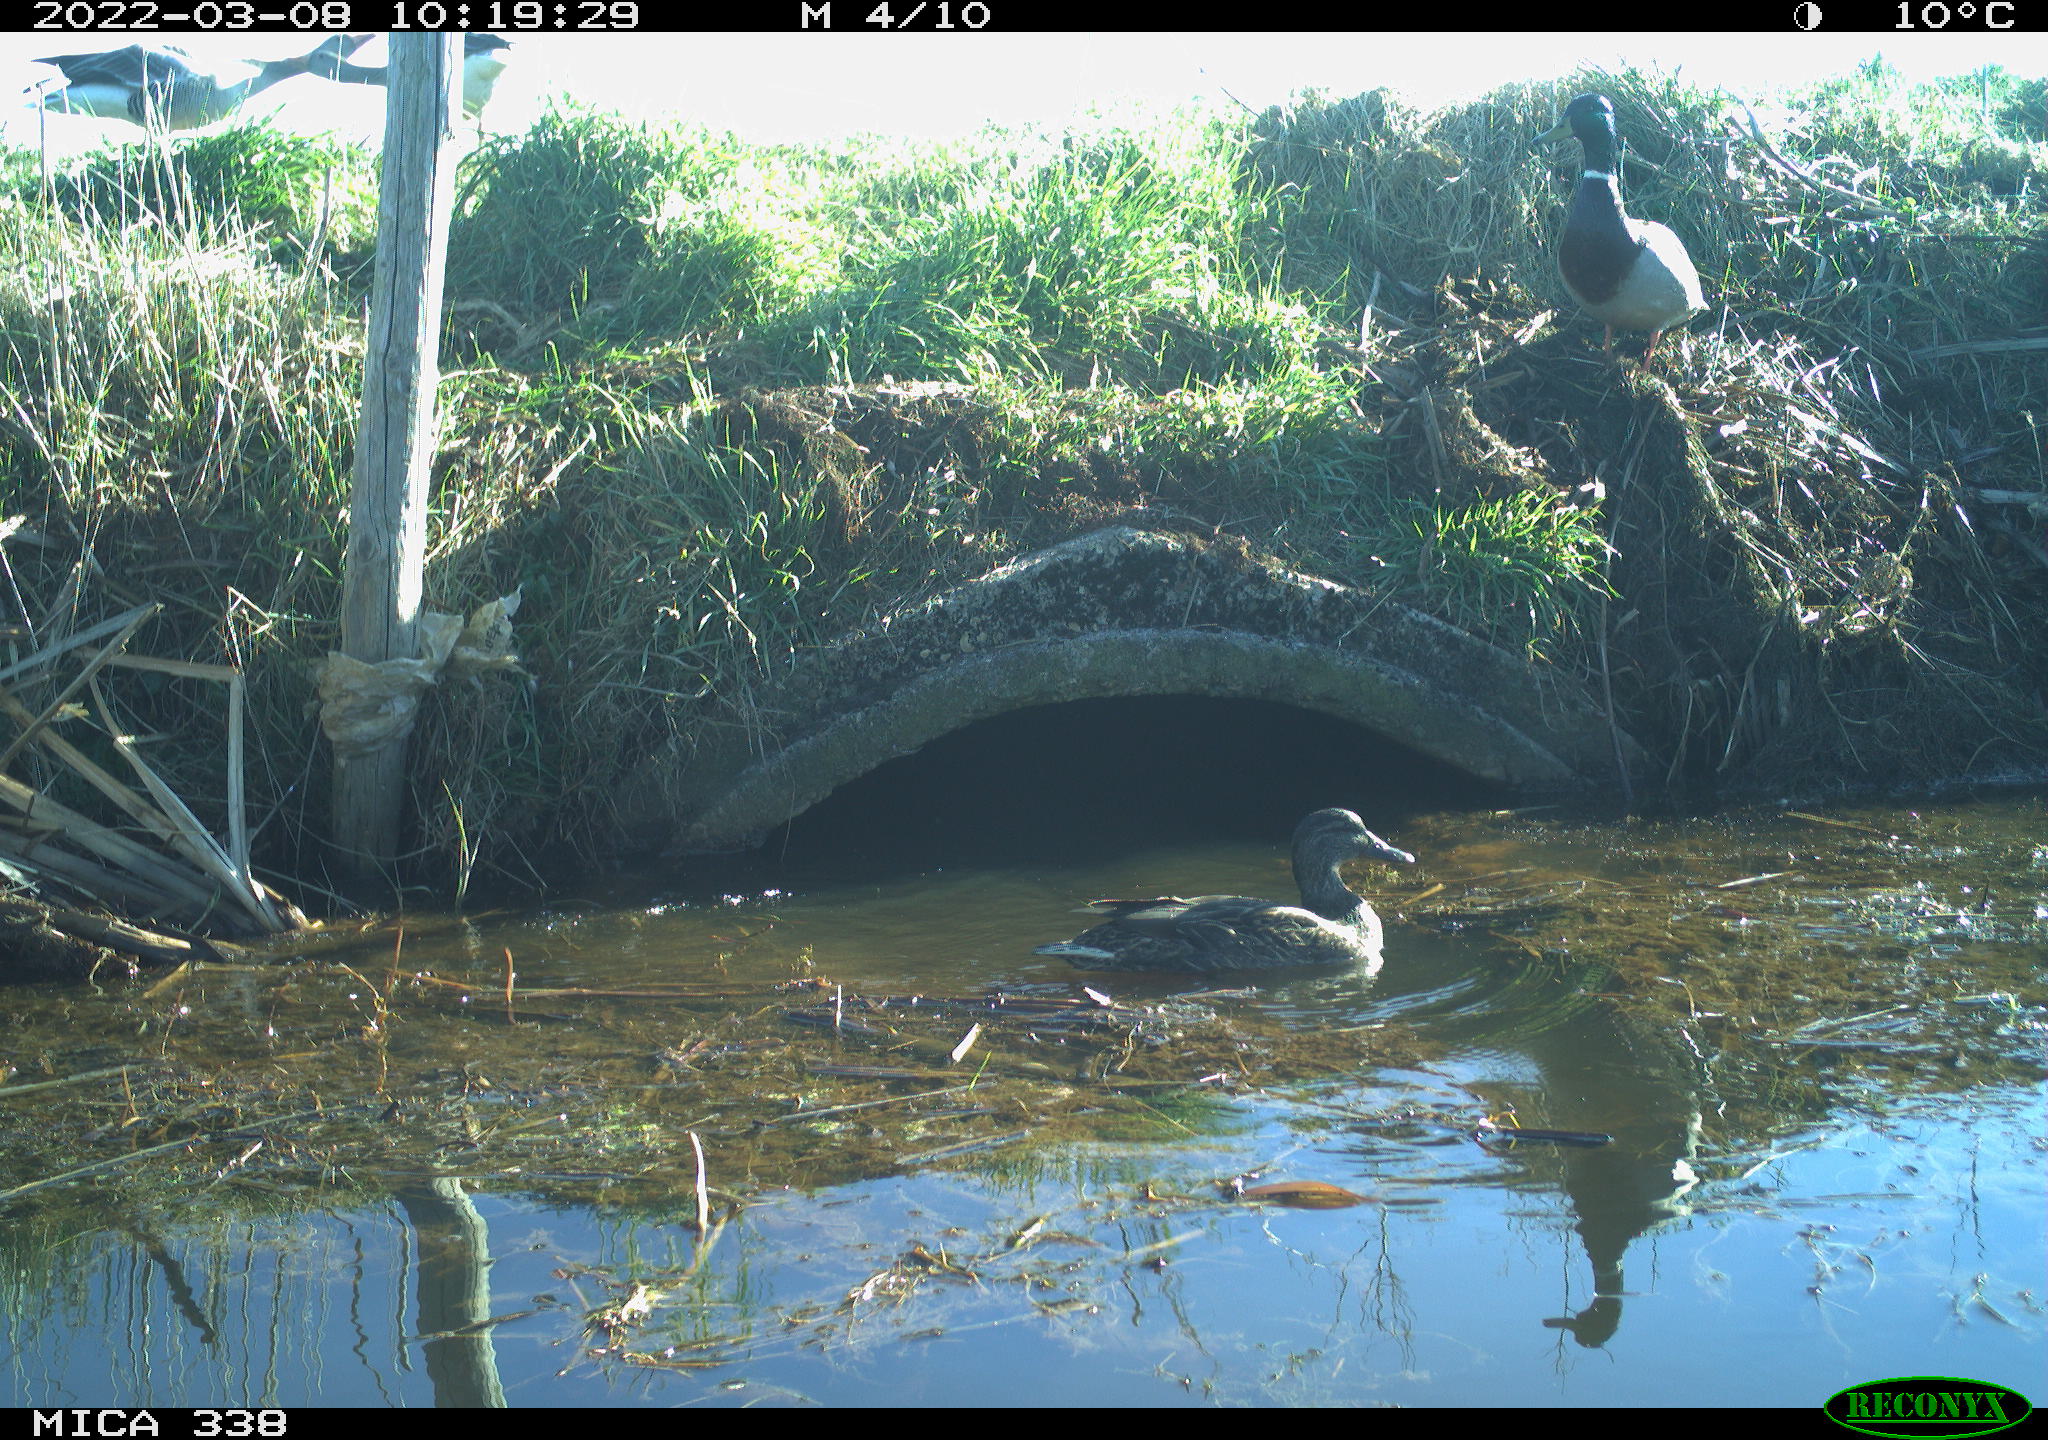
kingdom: Animalia
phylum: Chordata
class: Aves
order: Anseriformes
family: Anatidae
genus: Anas
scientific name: Anas platyrhynchos
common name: Mallard
